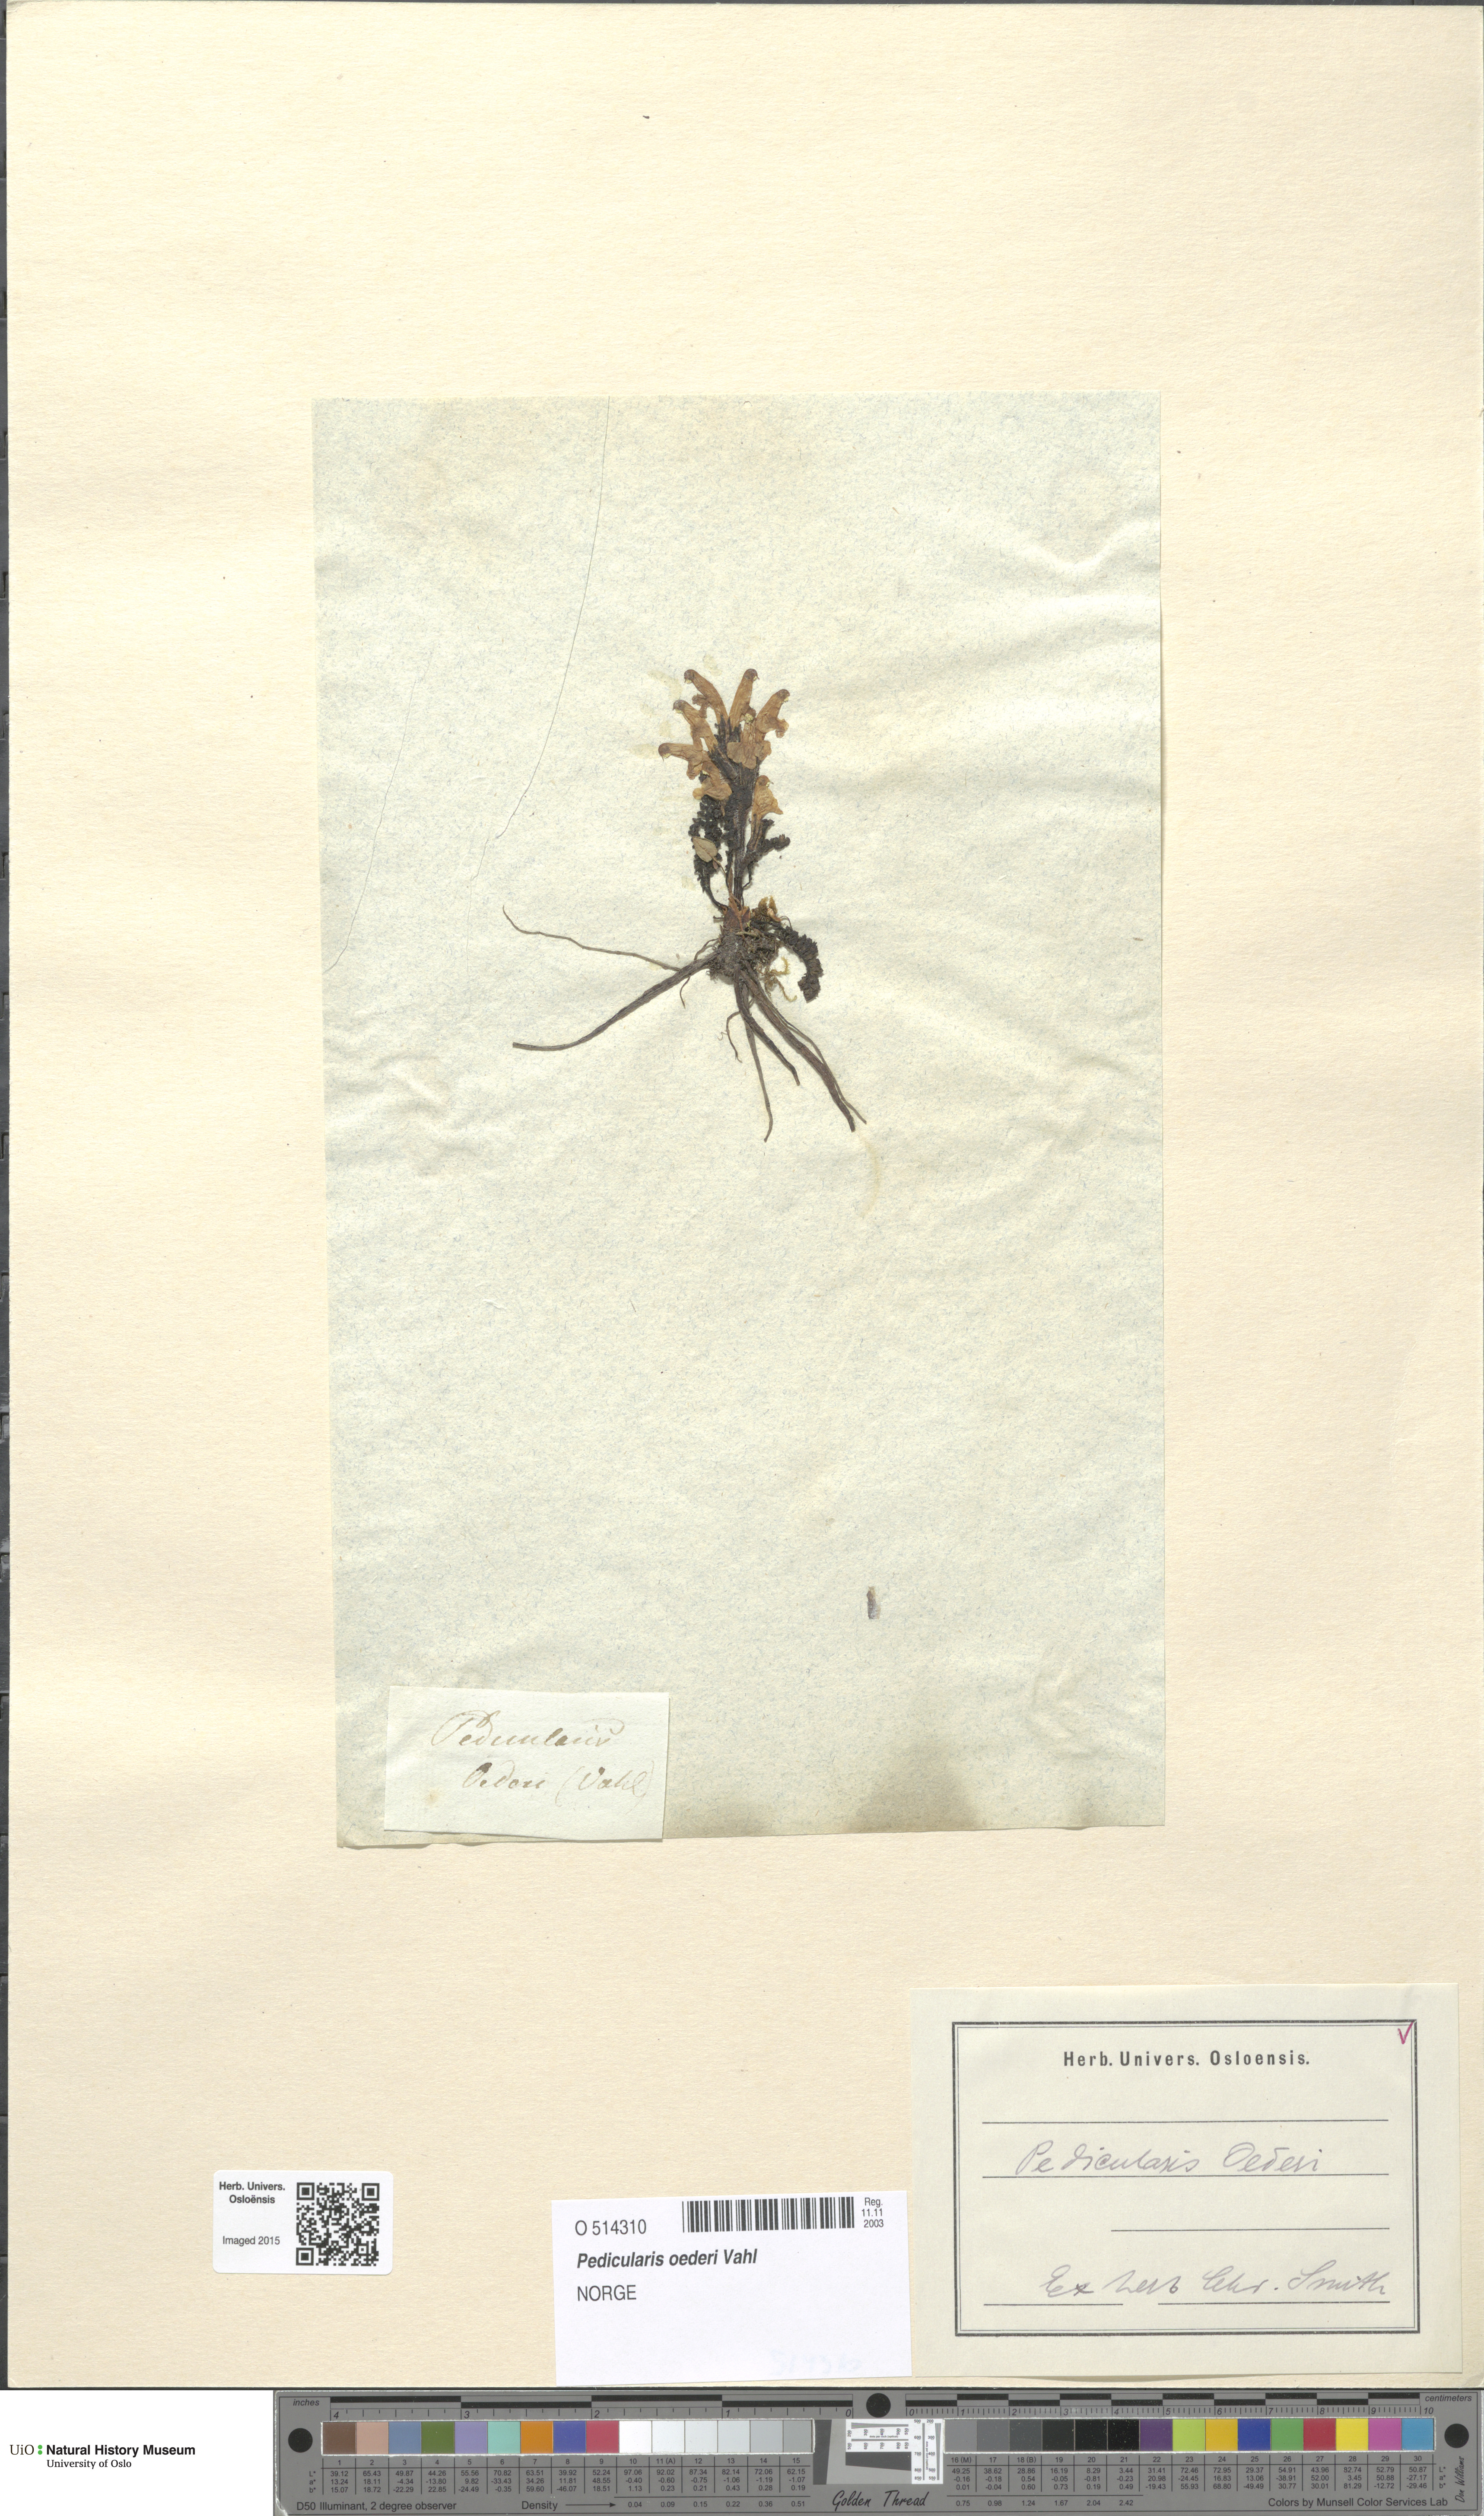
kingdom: Plantae
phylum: Tracheophyta
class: Magnoliopsida
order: Lamiales
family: Orobanchaceae
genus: Pedicularis
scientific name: Pedicularis oederi
